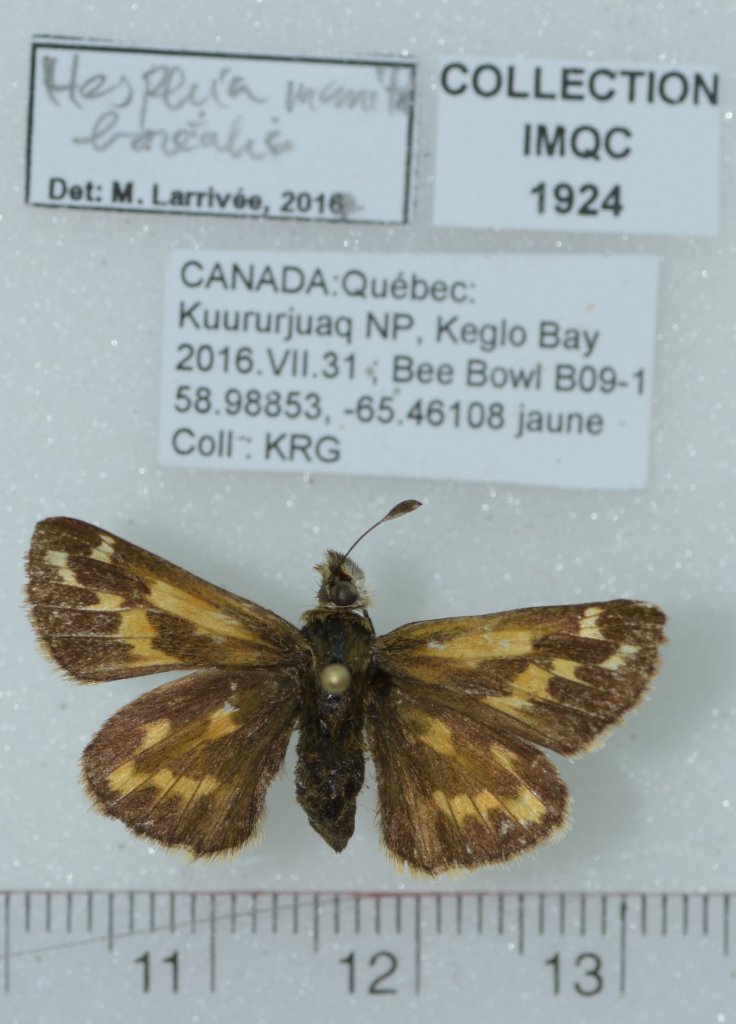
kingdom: Animalia
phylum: Arthropoda
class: Insecta
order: Lepidoptera
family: Hesperiidae
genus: Hesperia
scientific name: Hesperia comma
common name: Common Branded Skipper
